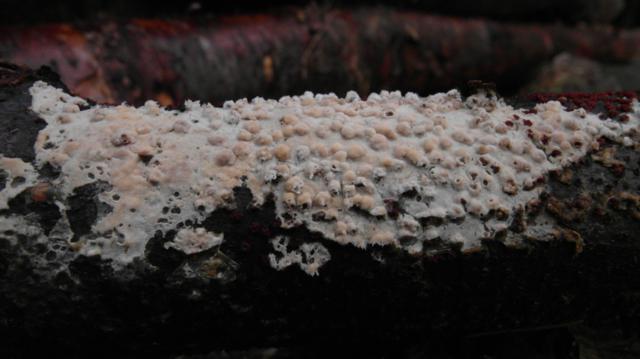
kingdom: Fungi
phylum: Basidiomycota
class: Agaricomycetes
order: Agaricales
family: Physalacriaceae
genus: Cylindrobasidium
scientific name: Cylindrobasidium evolvens
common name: sprækkehinde
